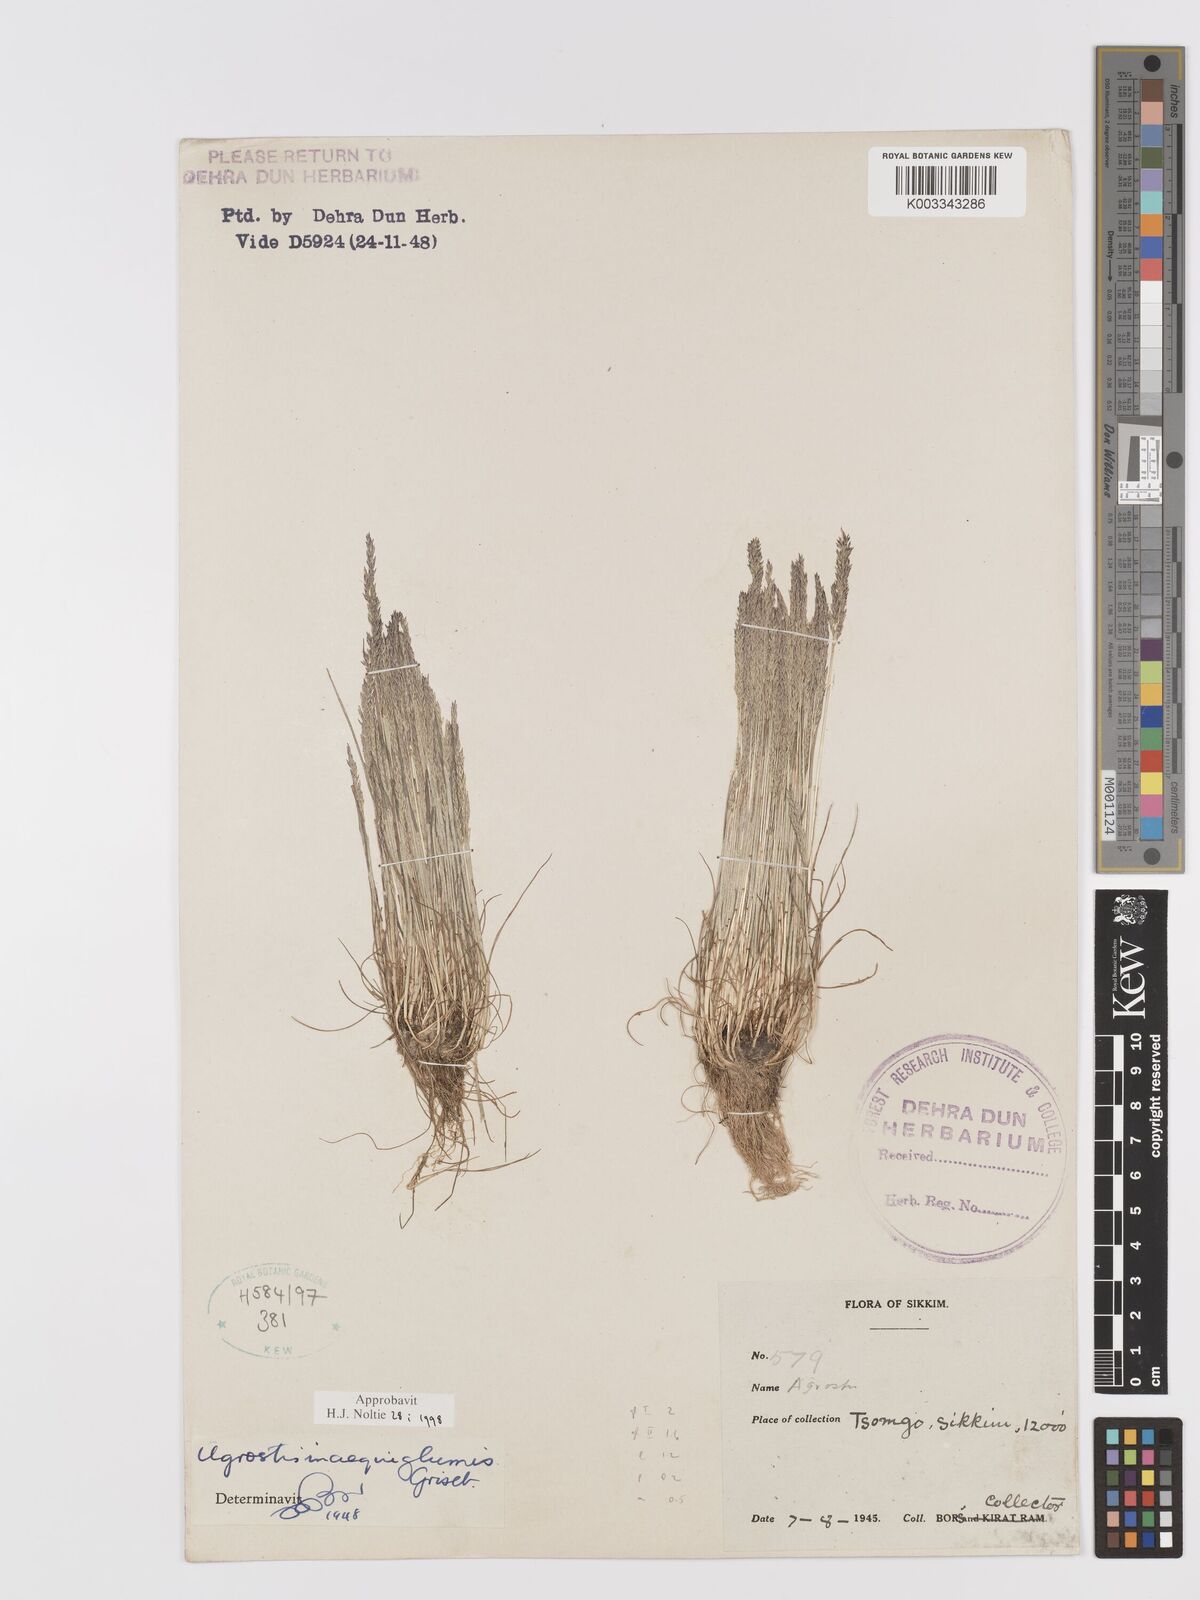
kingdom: Plantae
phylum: Tracheophyta
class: Liliopsida
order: Poales
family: Poaceae
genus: Agrostis
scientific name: Agrostis
